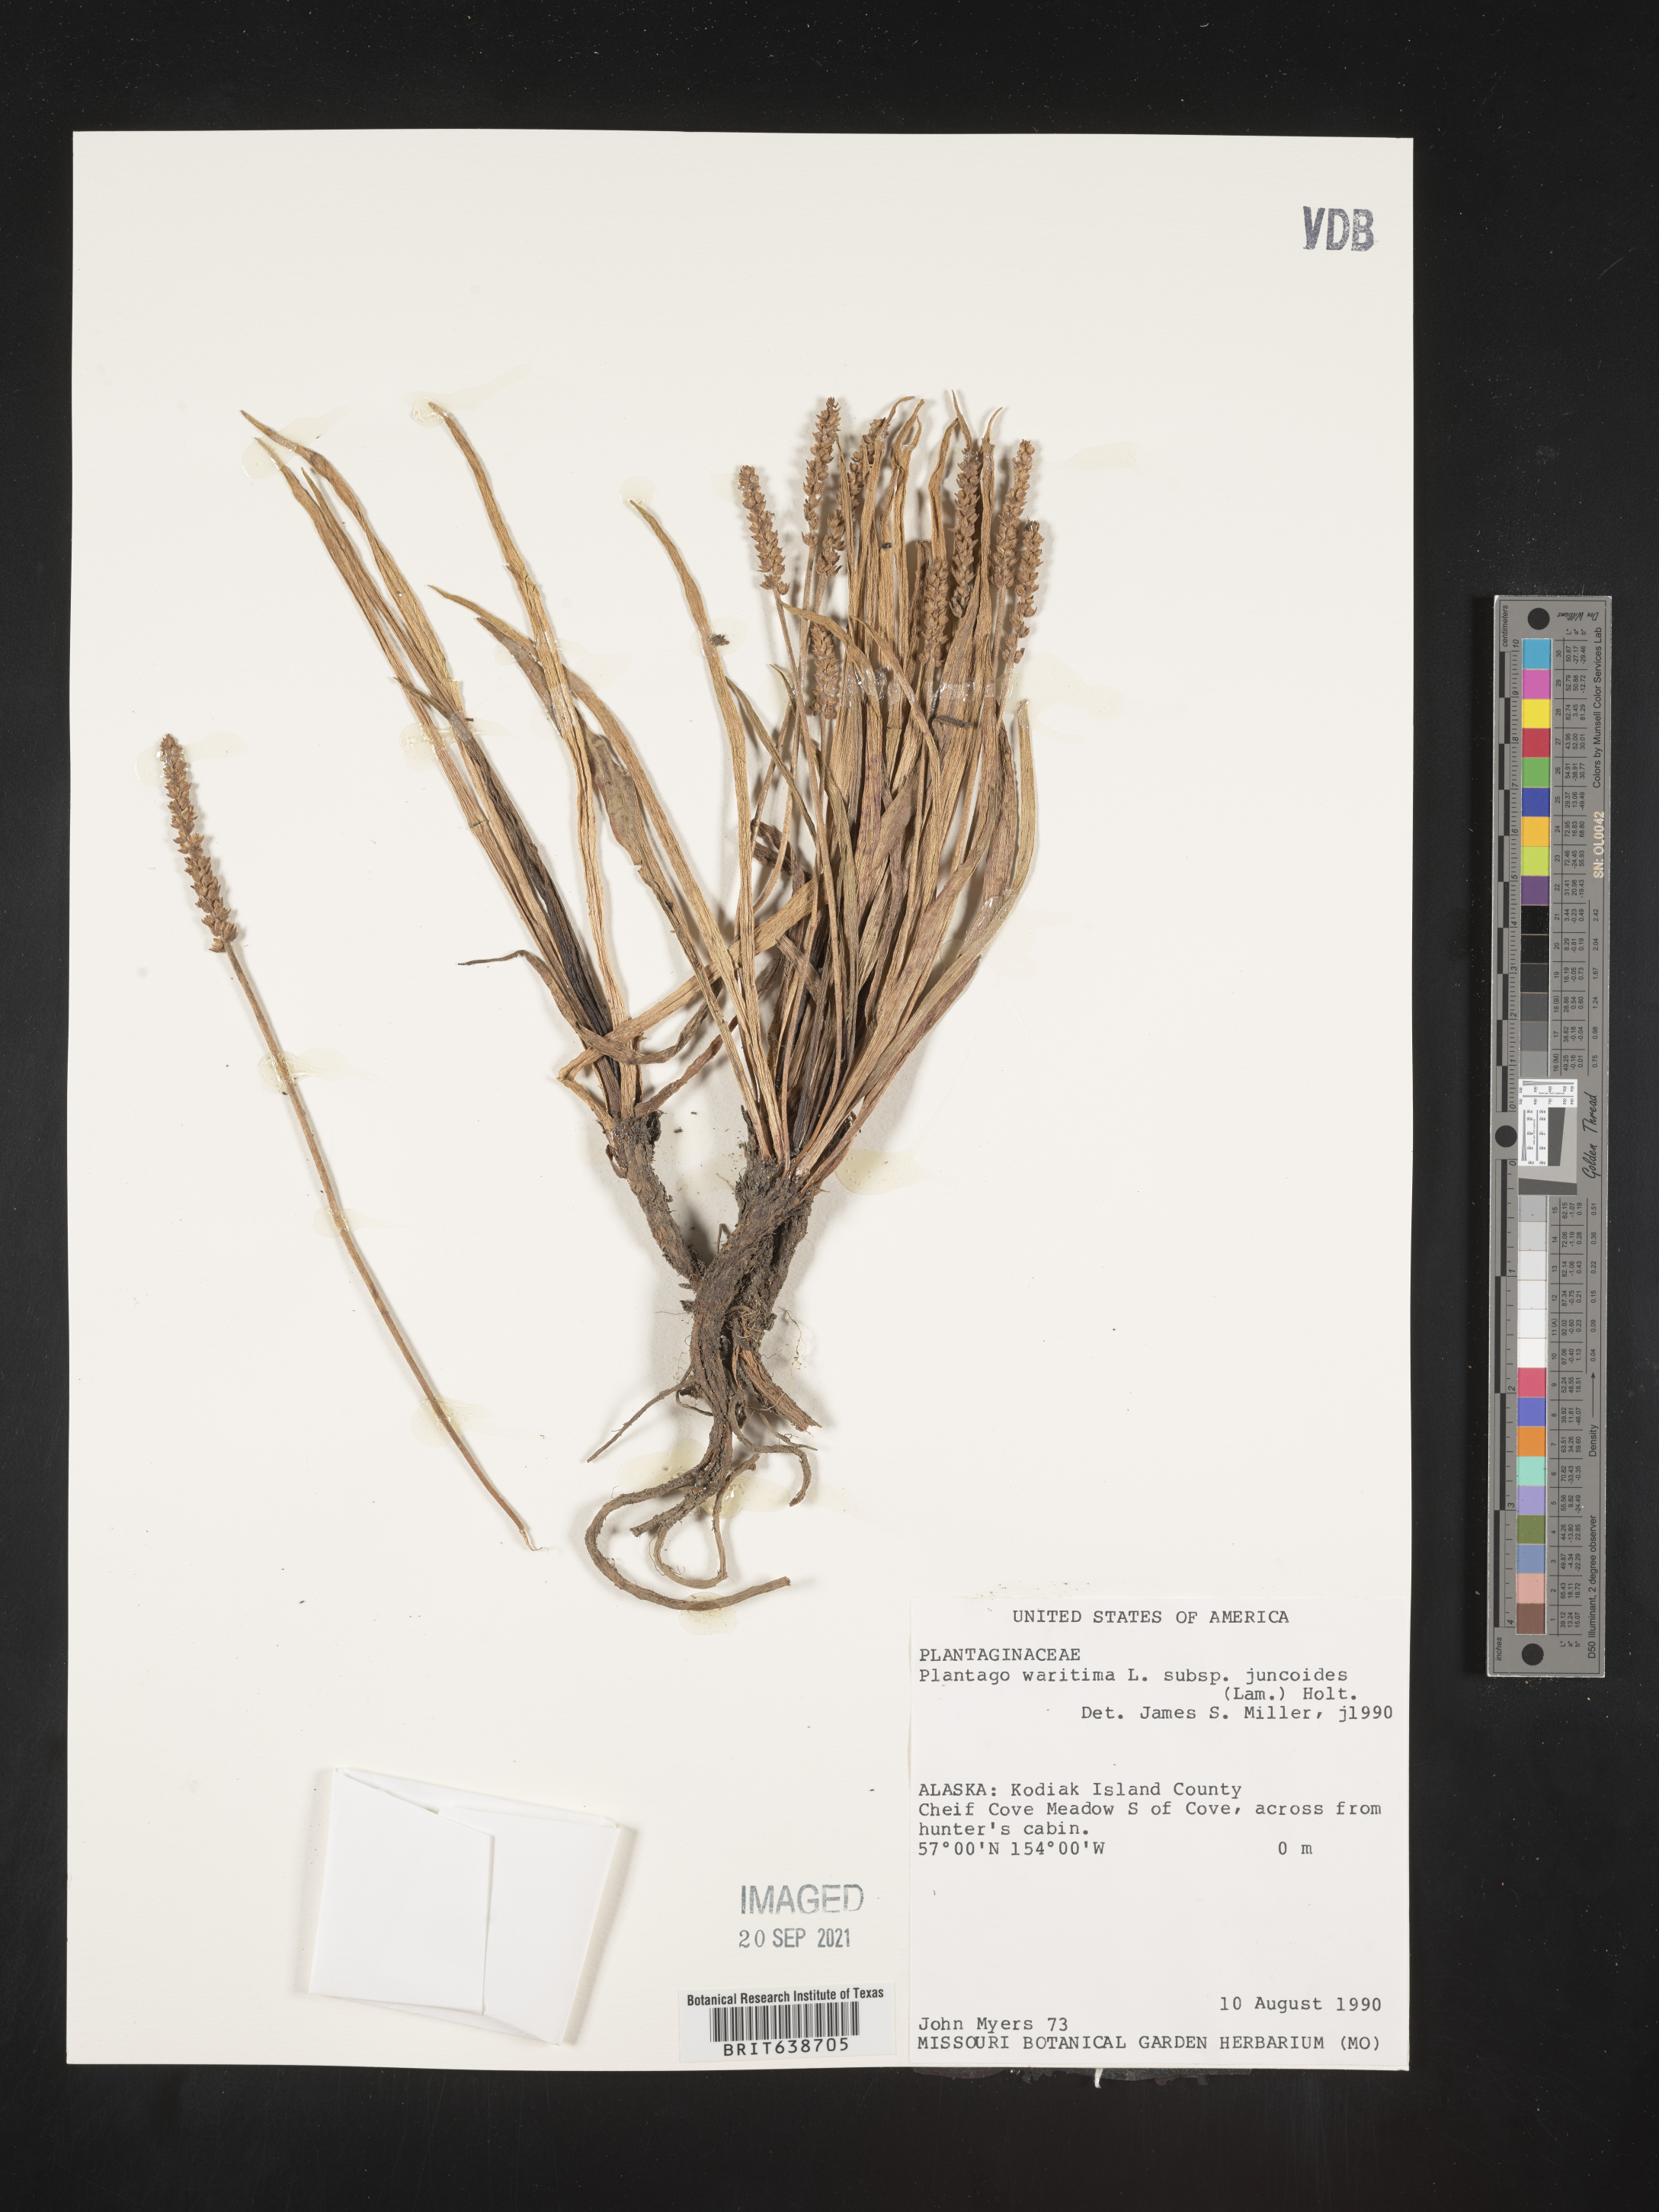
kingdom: Plantae
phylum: Tracheophyta
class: Magnoliopsida
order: Lamiales
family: Plantaginaceae
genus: Plantago
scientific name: Plantago
